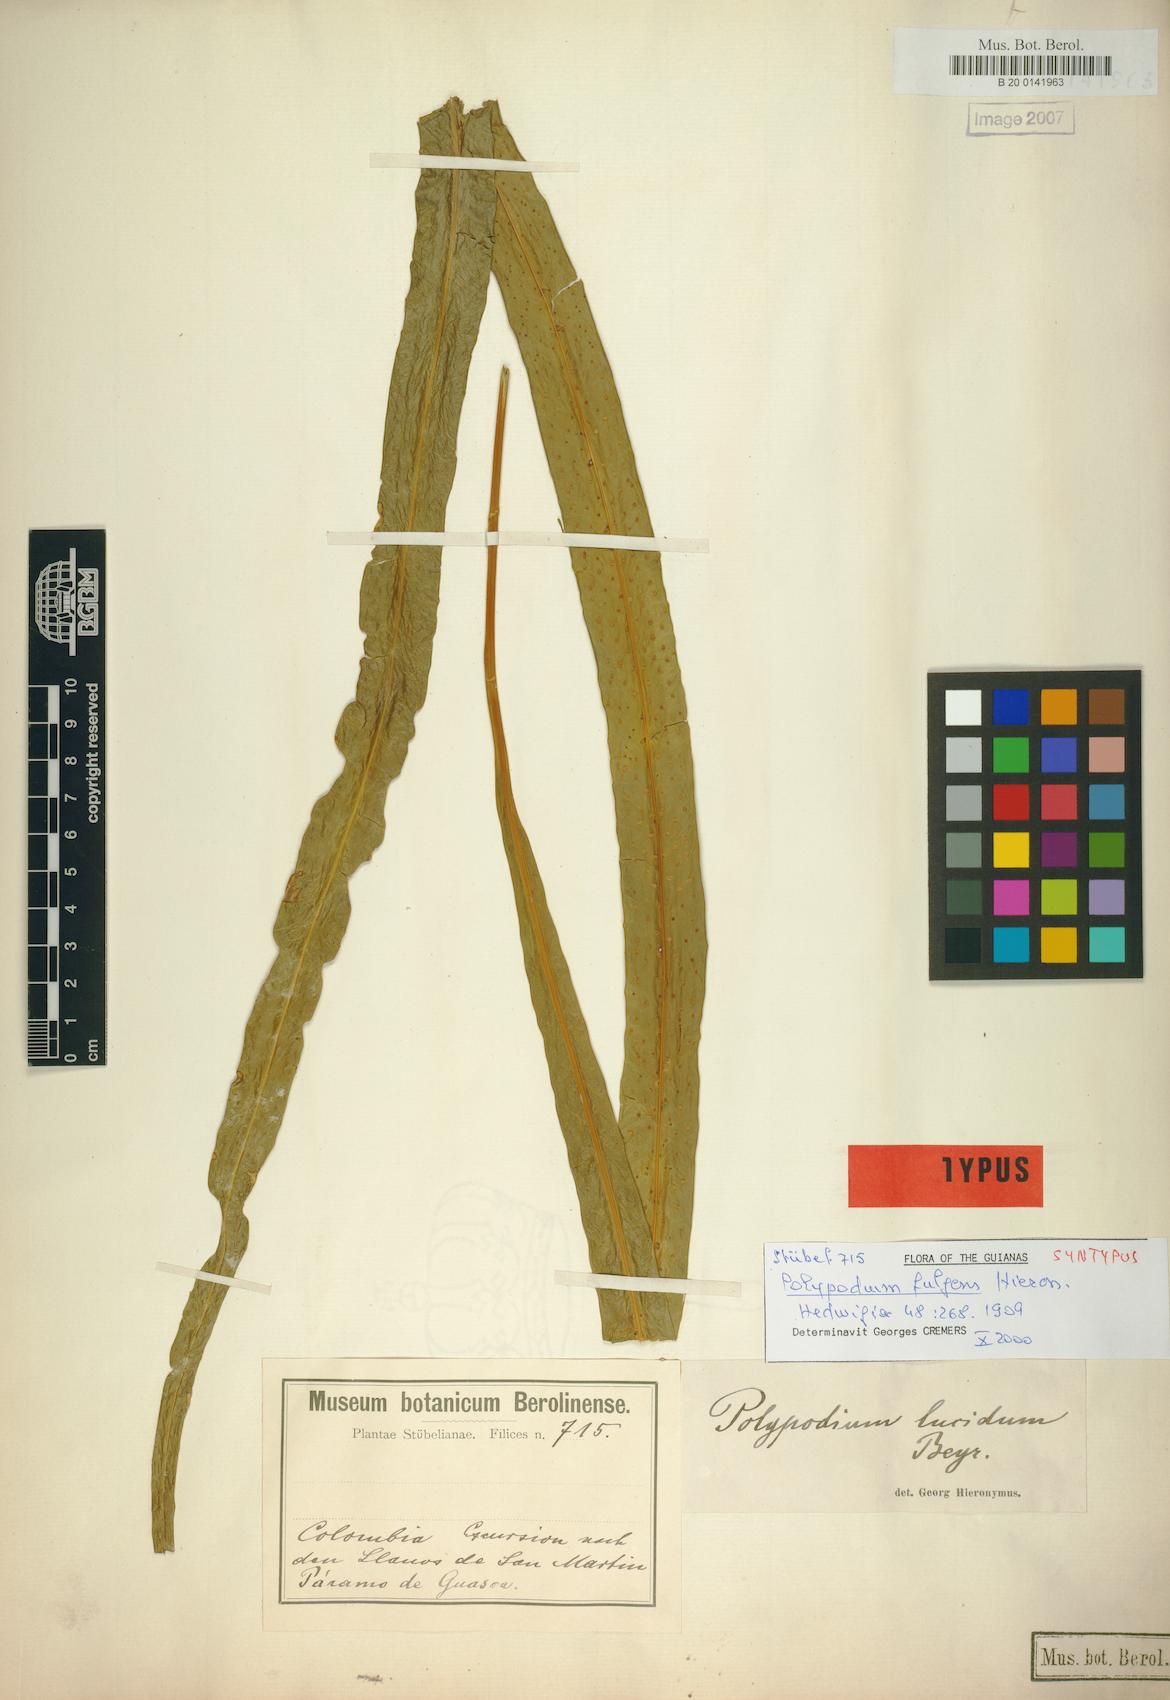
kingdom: Plantae
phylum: Tracheophyta
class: Polypodiopsida
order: Polypodiales
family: Polypodiaceae
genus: Campyloneurum
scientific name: Campyloneurum rigidum
